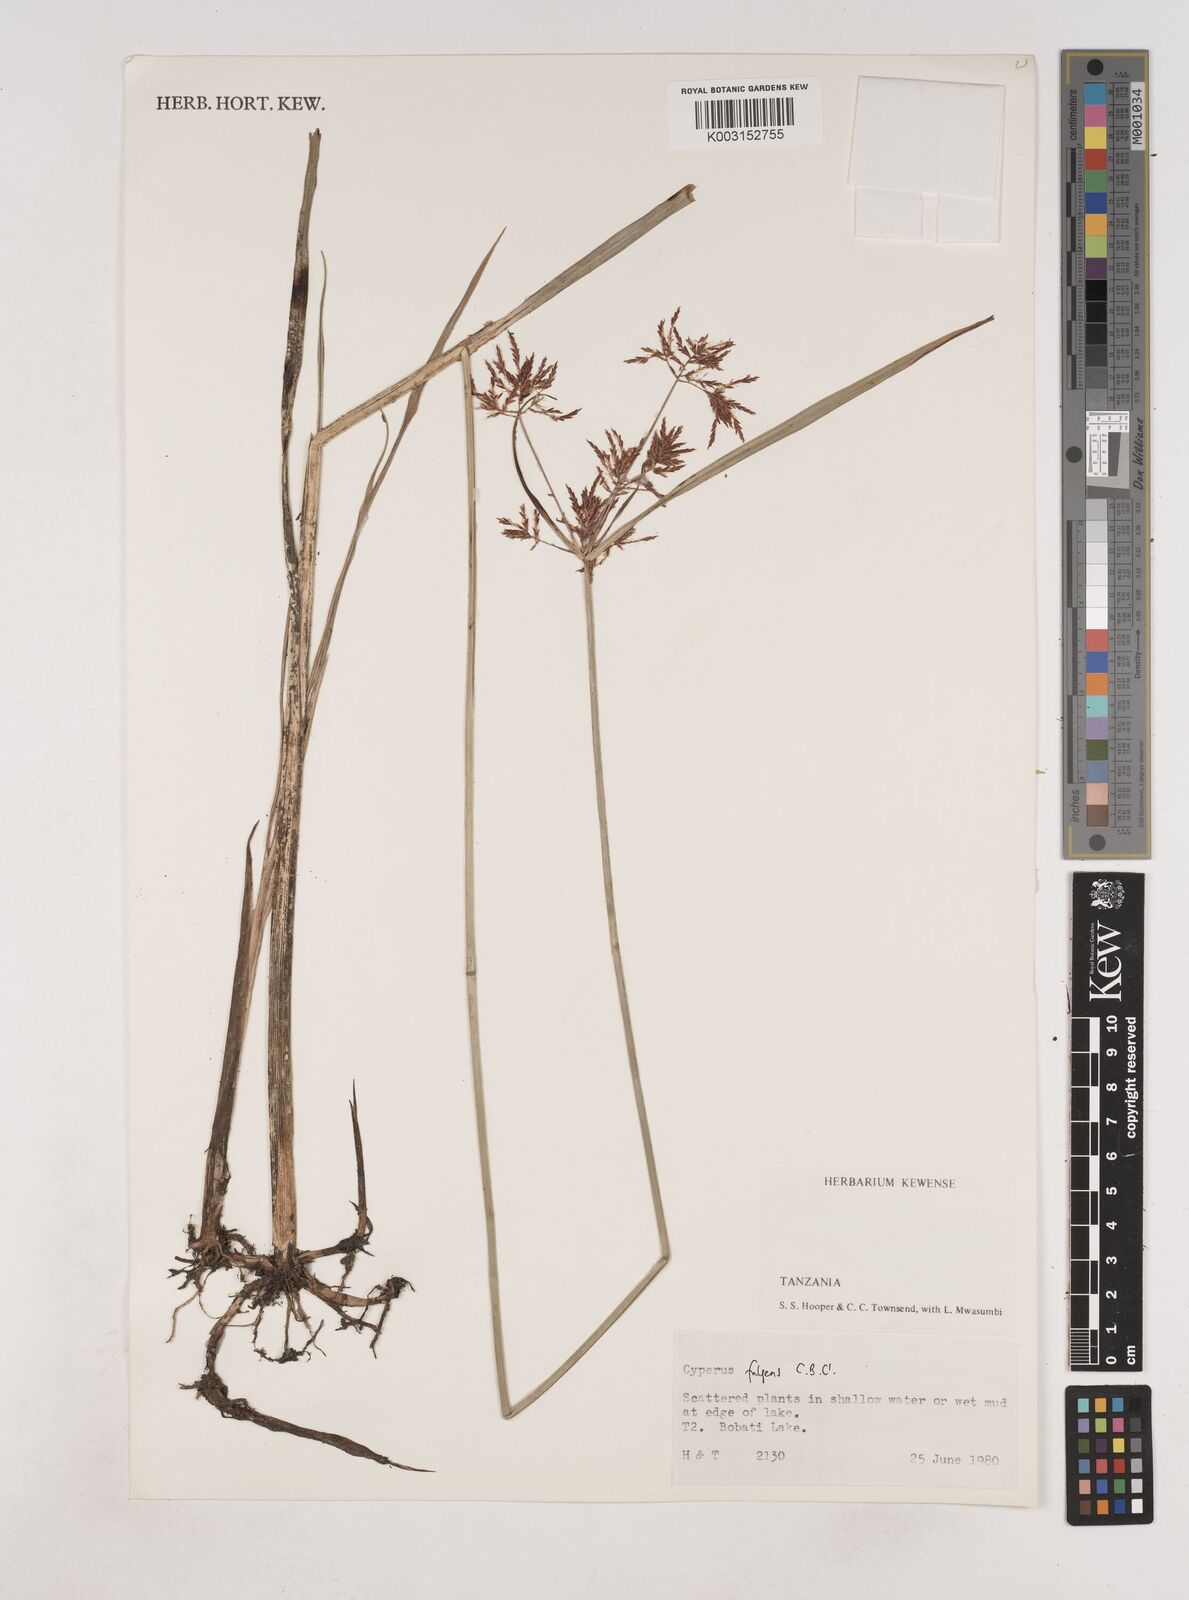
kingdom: Plantae
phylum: Tracheophyta
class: Liliopsida
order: Poales
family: Cyperaceae
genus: Cyperus
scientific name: Cyperus callistus
